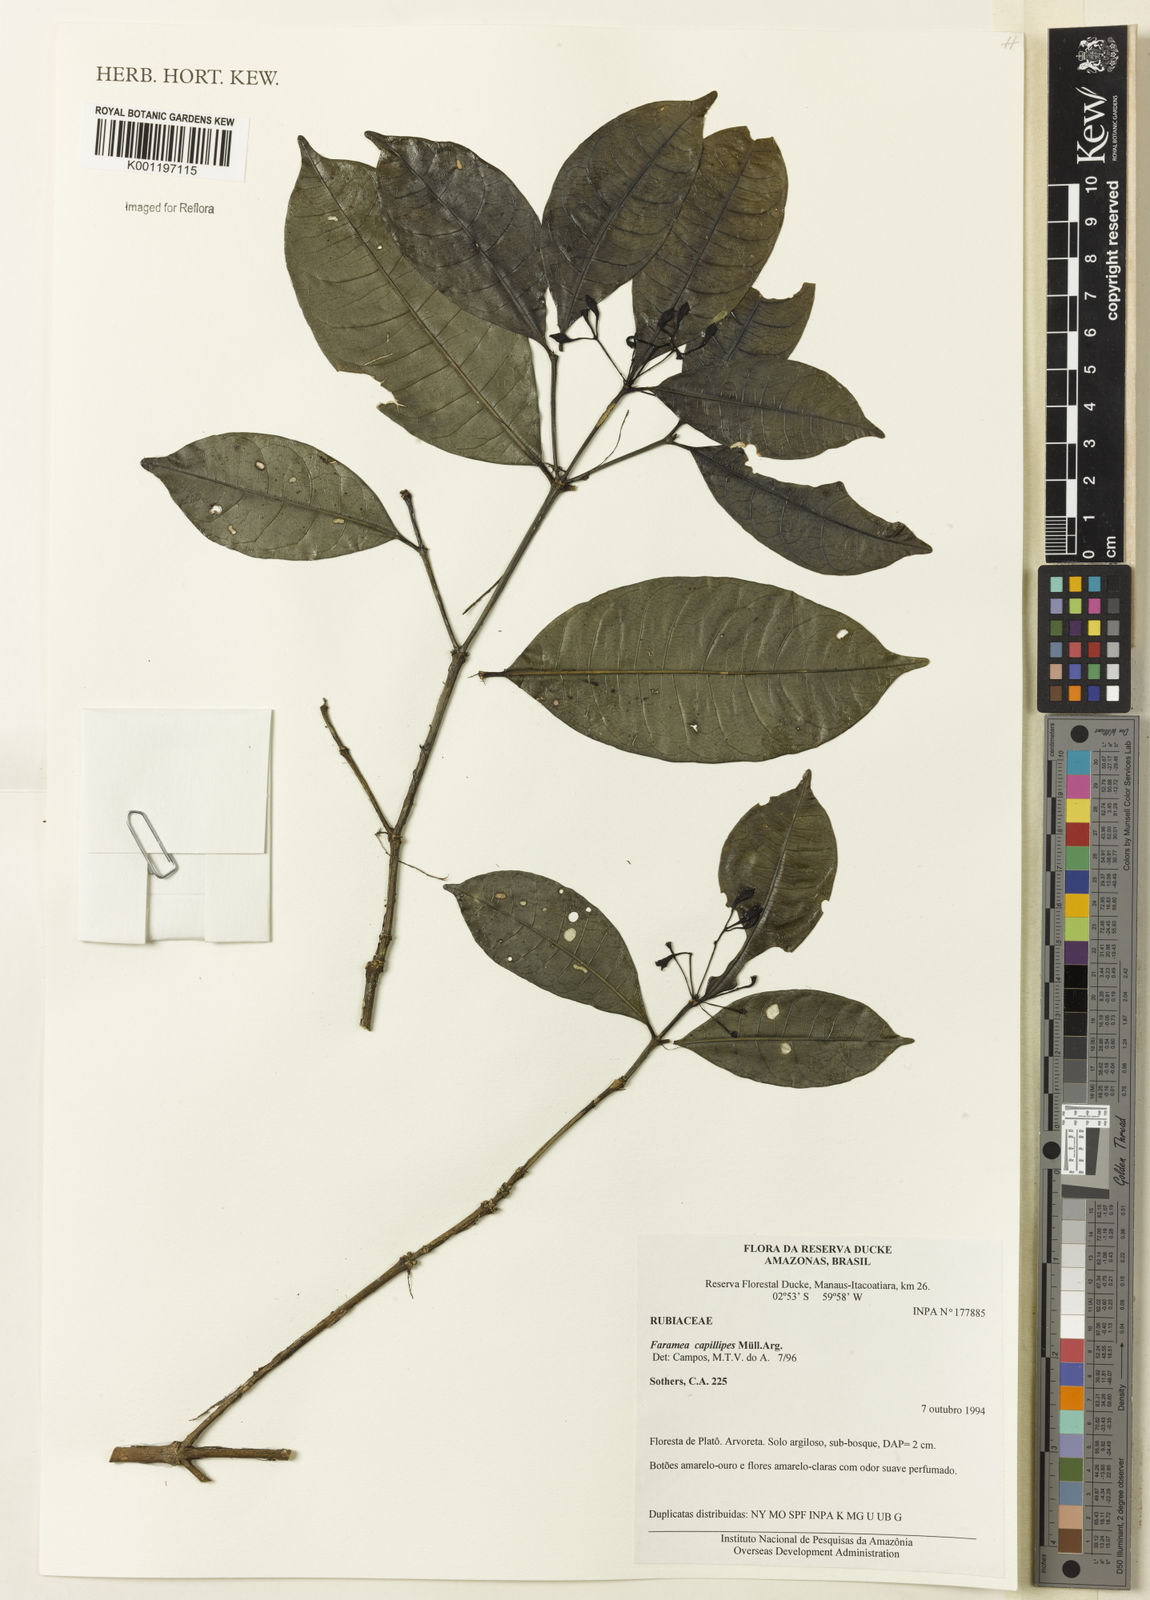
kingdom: Plantae
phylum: Tracheophyta
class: Magnoliopsida
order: Gentianales
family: Rubiaceae
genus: Faramea
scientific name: Faramea
